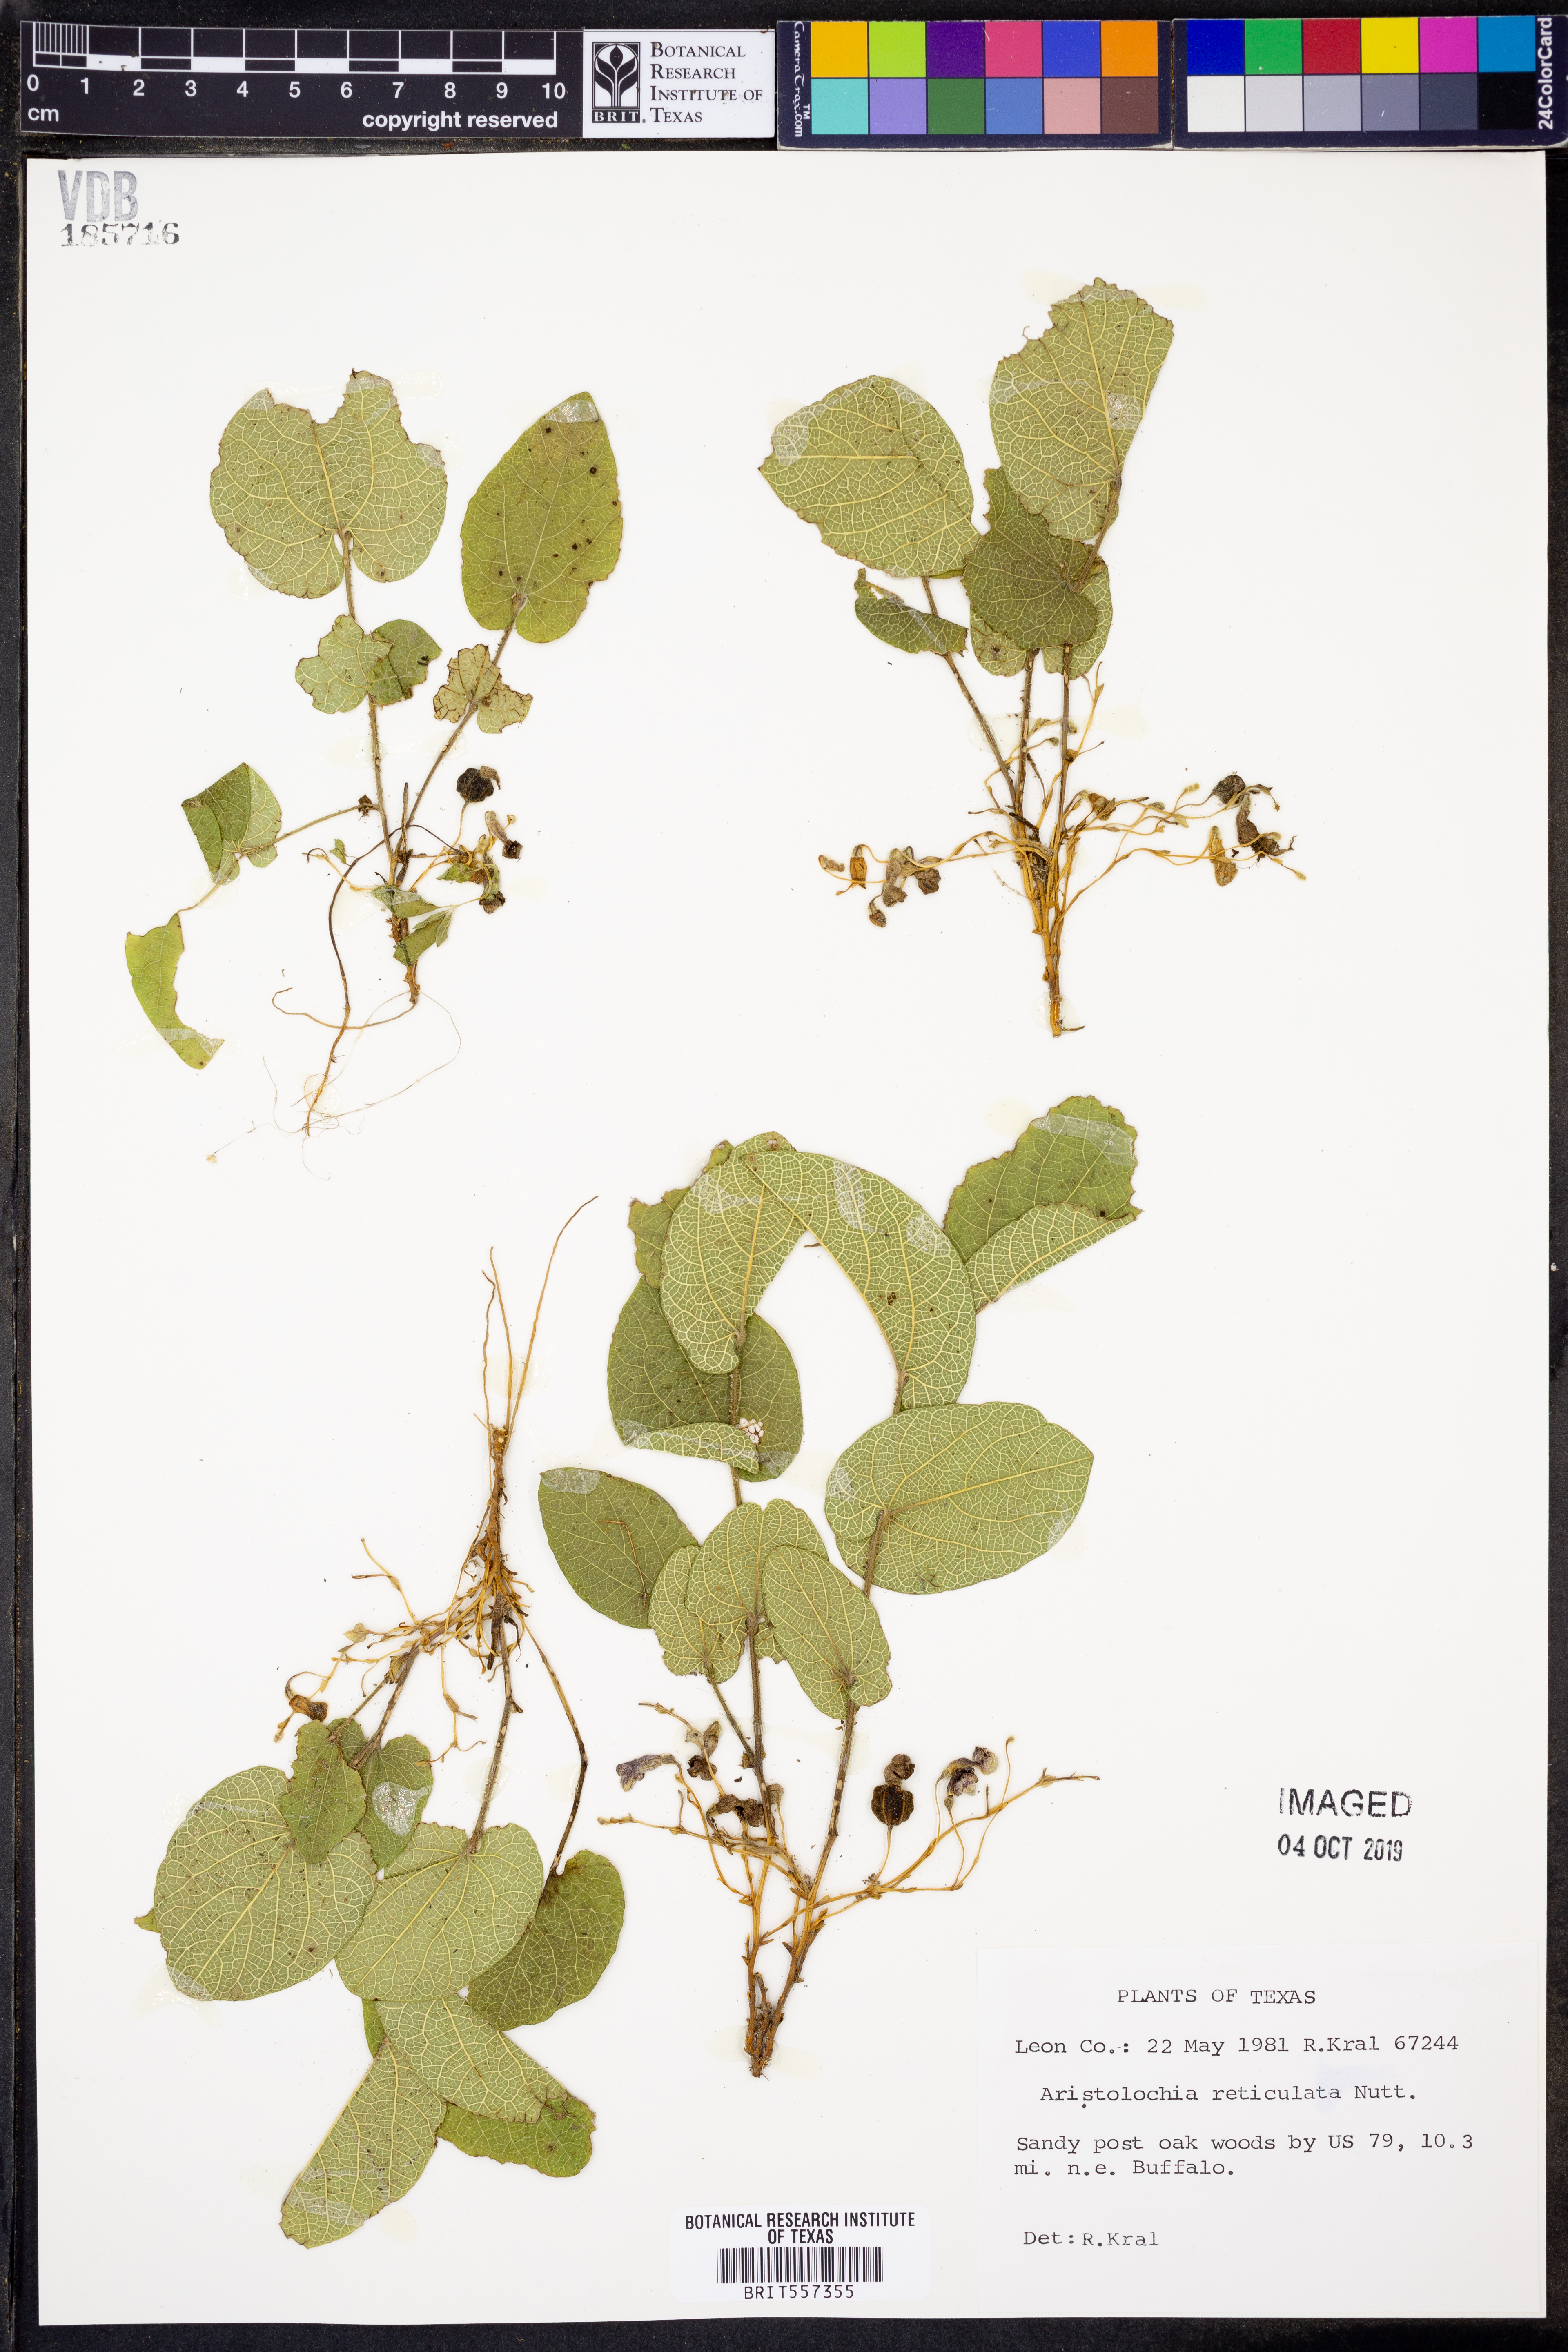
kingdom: Plantae
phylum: Tracheophyta
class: Magnoliopsida
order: Piperales
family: Aristolochiaceae
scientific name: Aristolochiaceae
